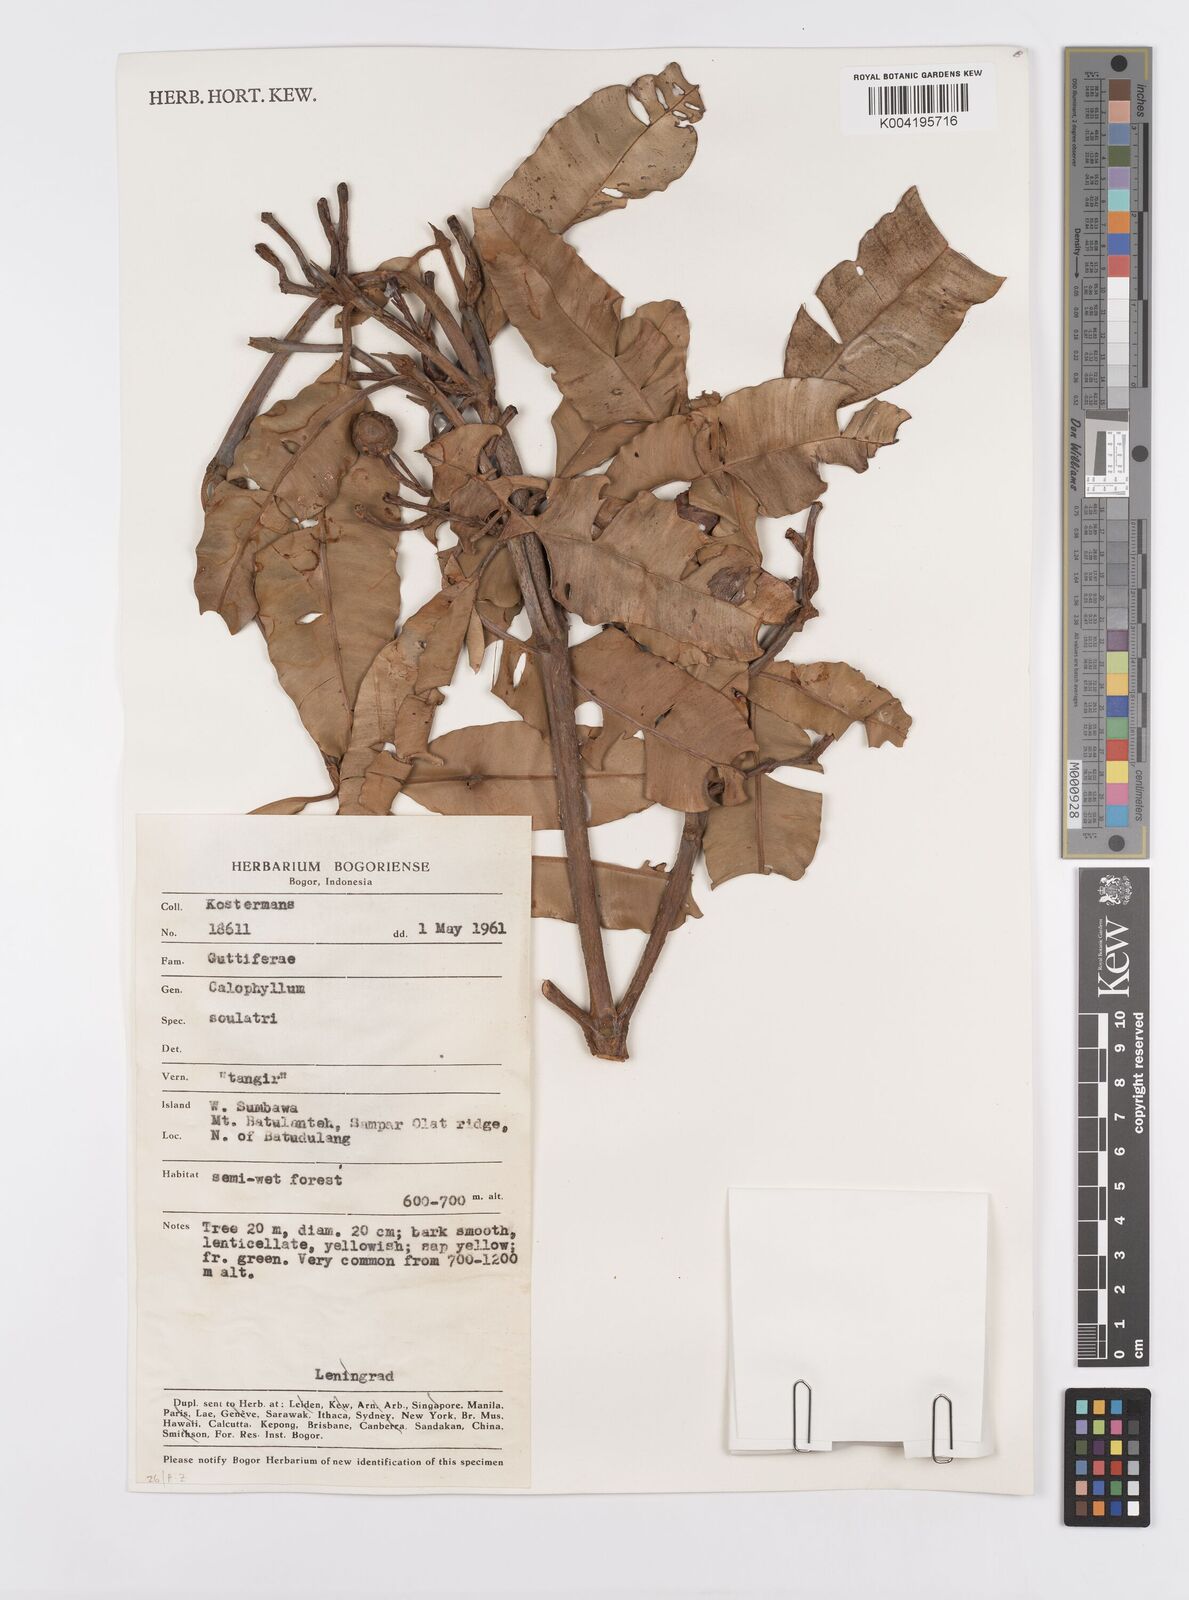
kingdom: Plantae
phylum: Tracheophyta
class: Magnoliopsida
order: Malpighiales
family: Calophyllaceae
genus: Calophyllum
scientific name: Calophyllum soulattri
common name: Bitangoor boonot
